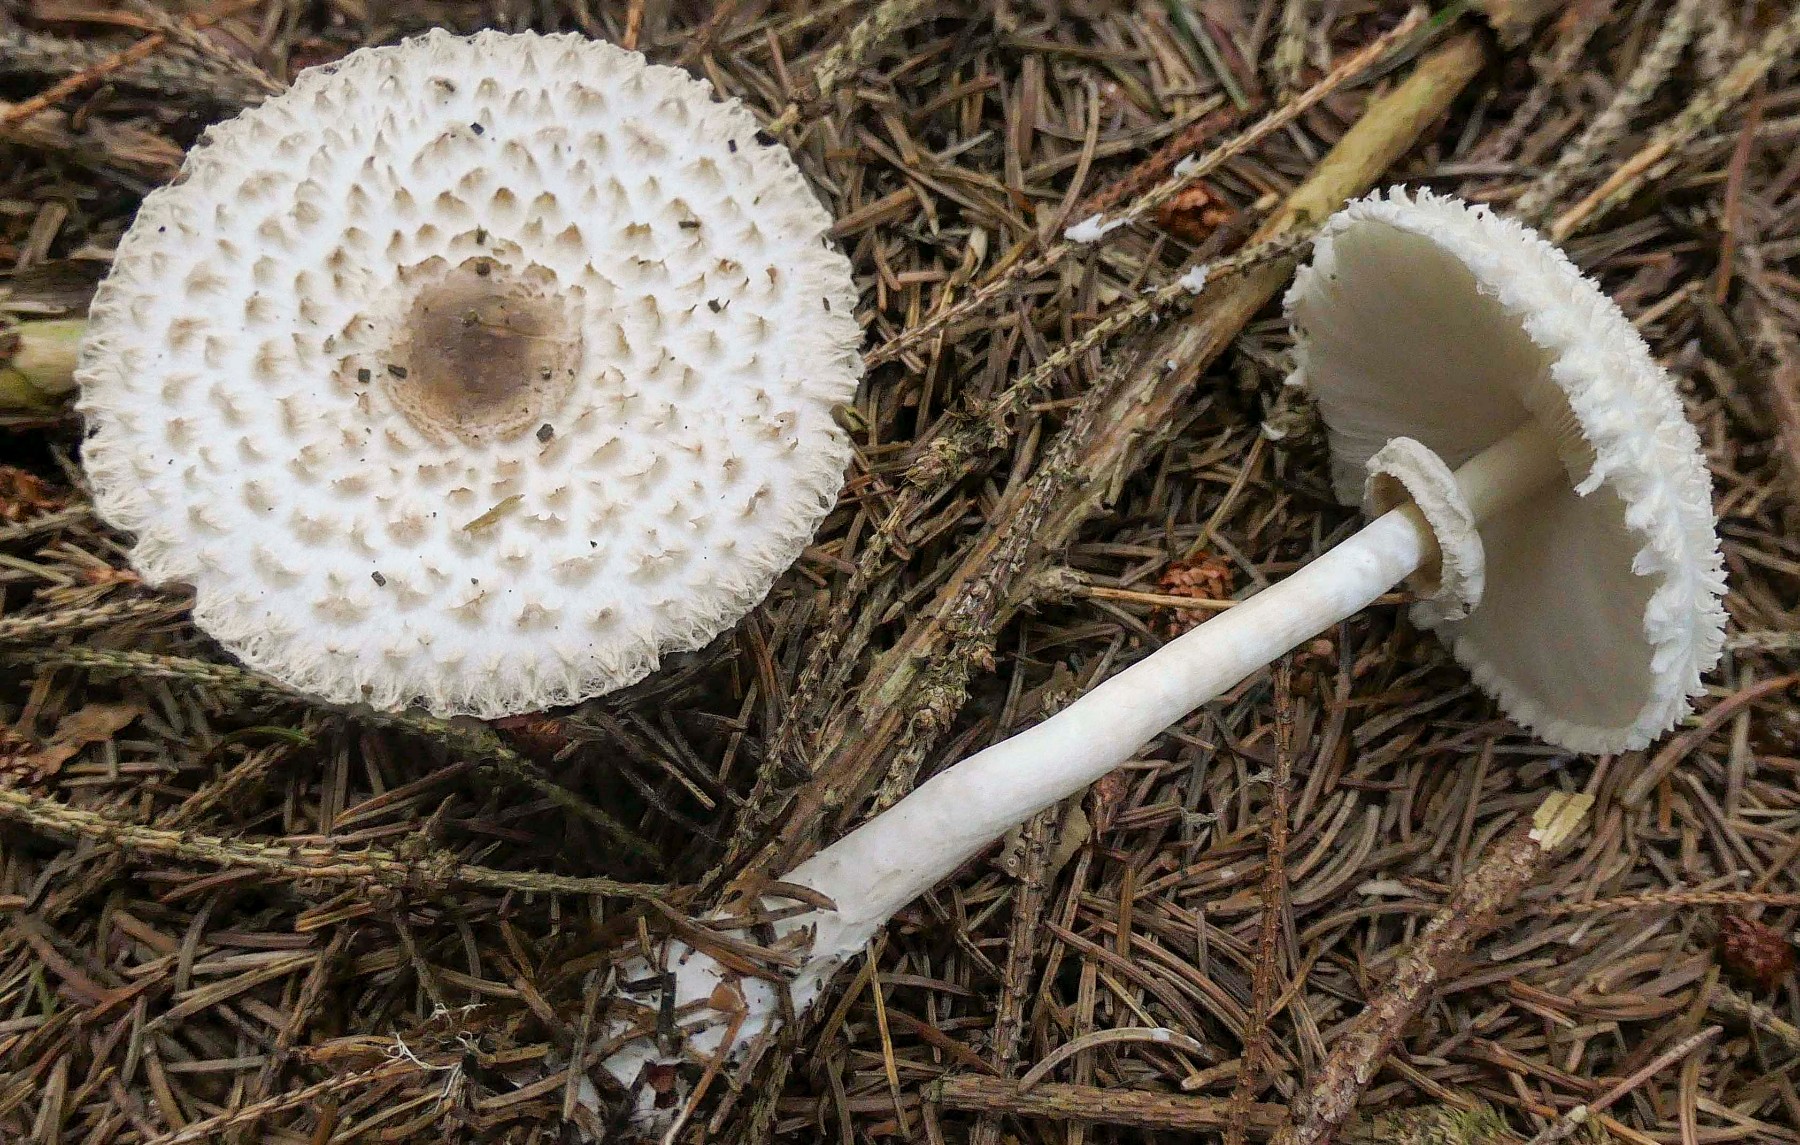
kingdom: Fungi
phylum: Basidiomycota
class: Agaricomycetes
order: Agaricales
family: Agaricaceae
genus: Leucoagaricus
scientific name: Leucoagaricus nympharum
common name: gran-silkehat
